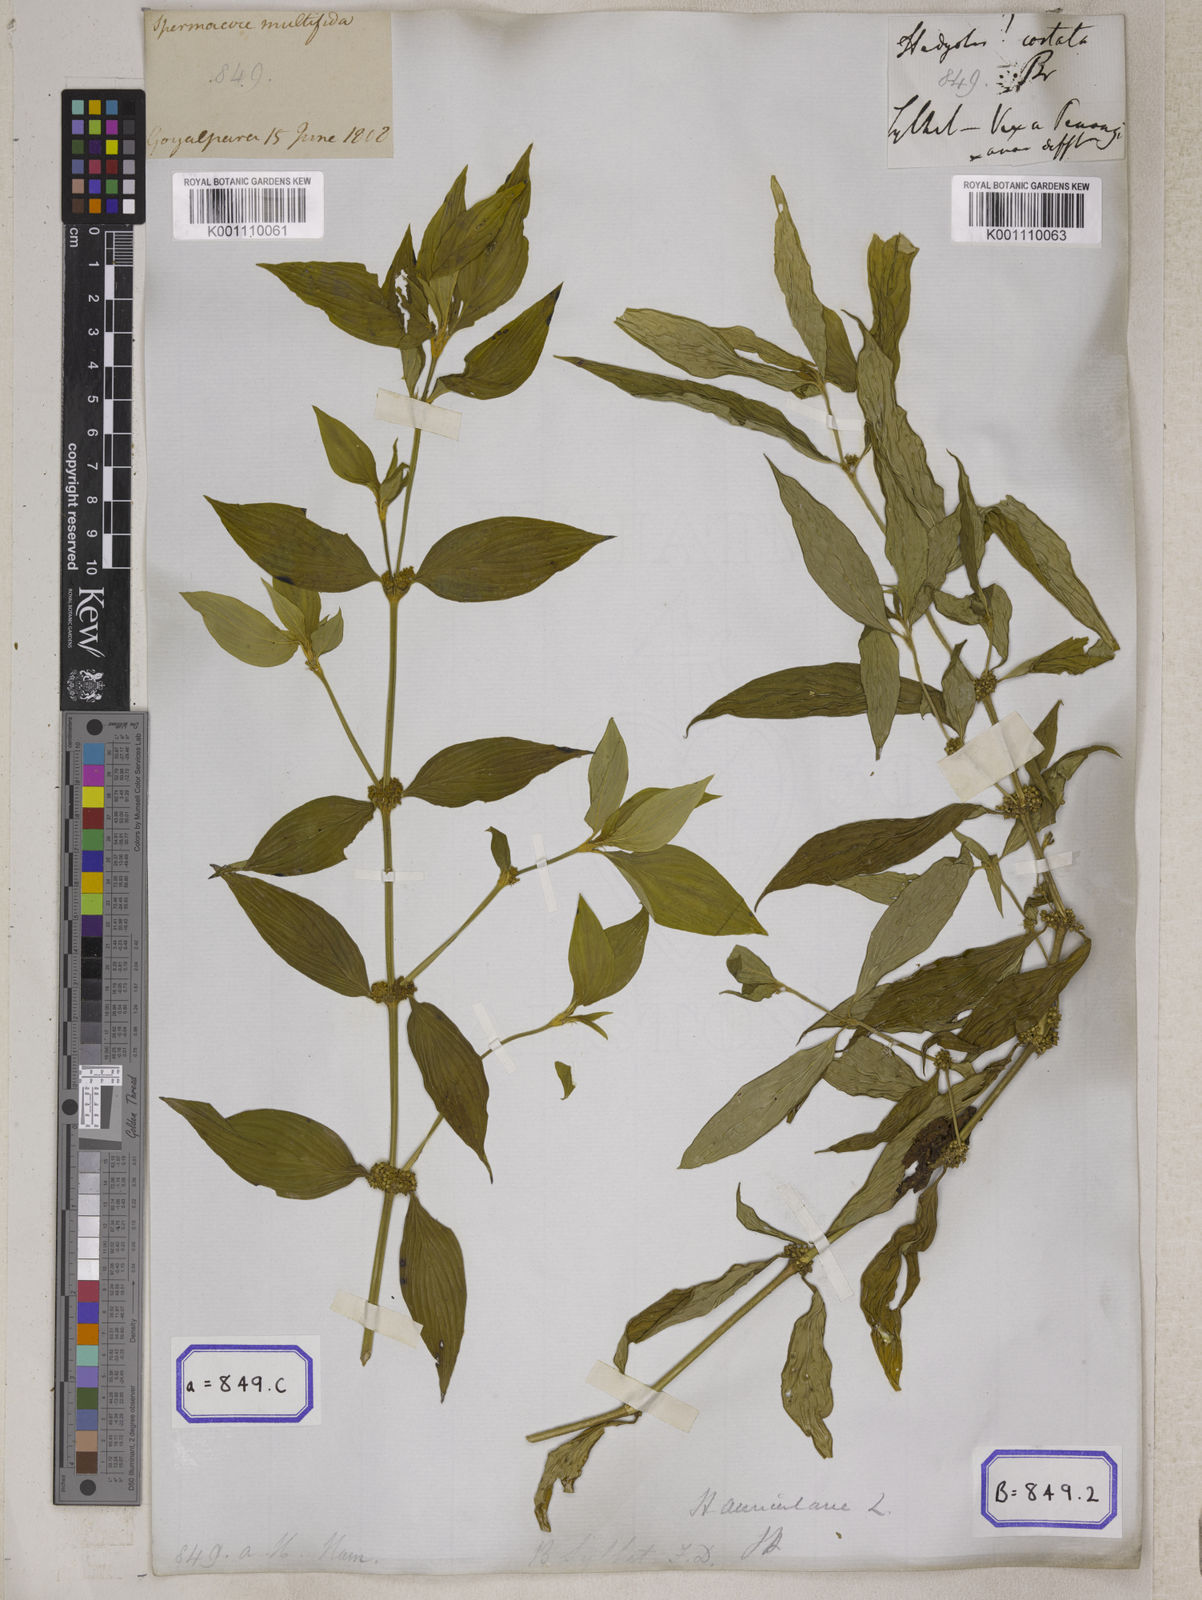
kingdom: Plantae
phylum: Tracheophyta
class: Magnoliopsida
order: Gentianales
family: Rubiaceae
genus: Hedyotis
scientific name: Hedyotis
